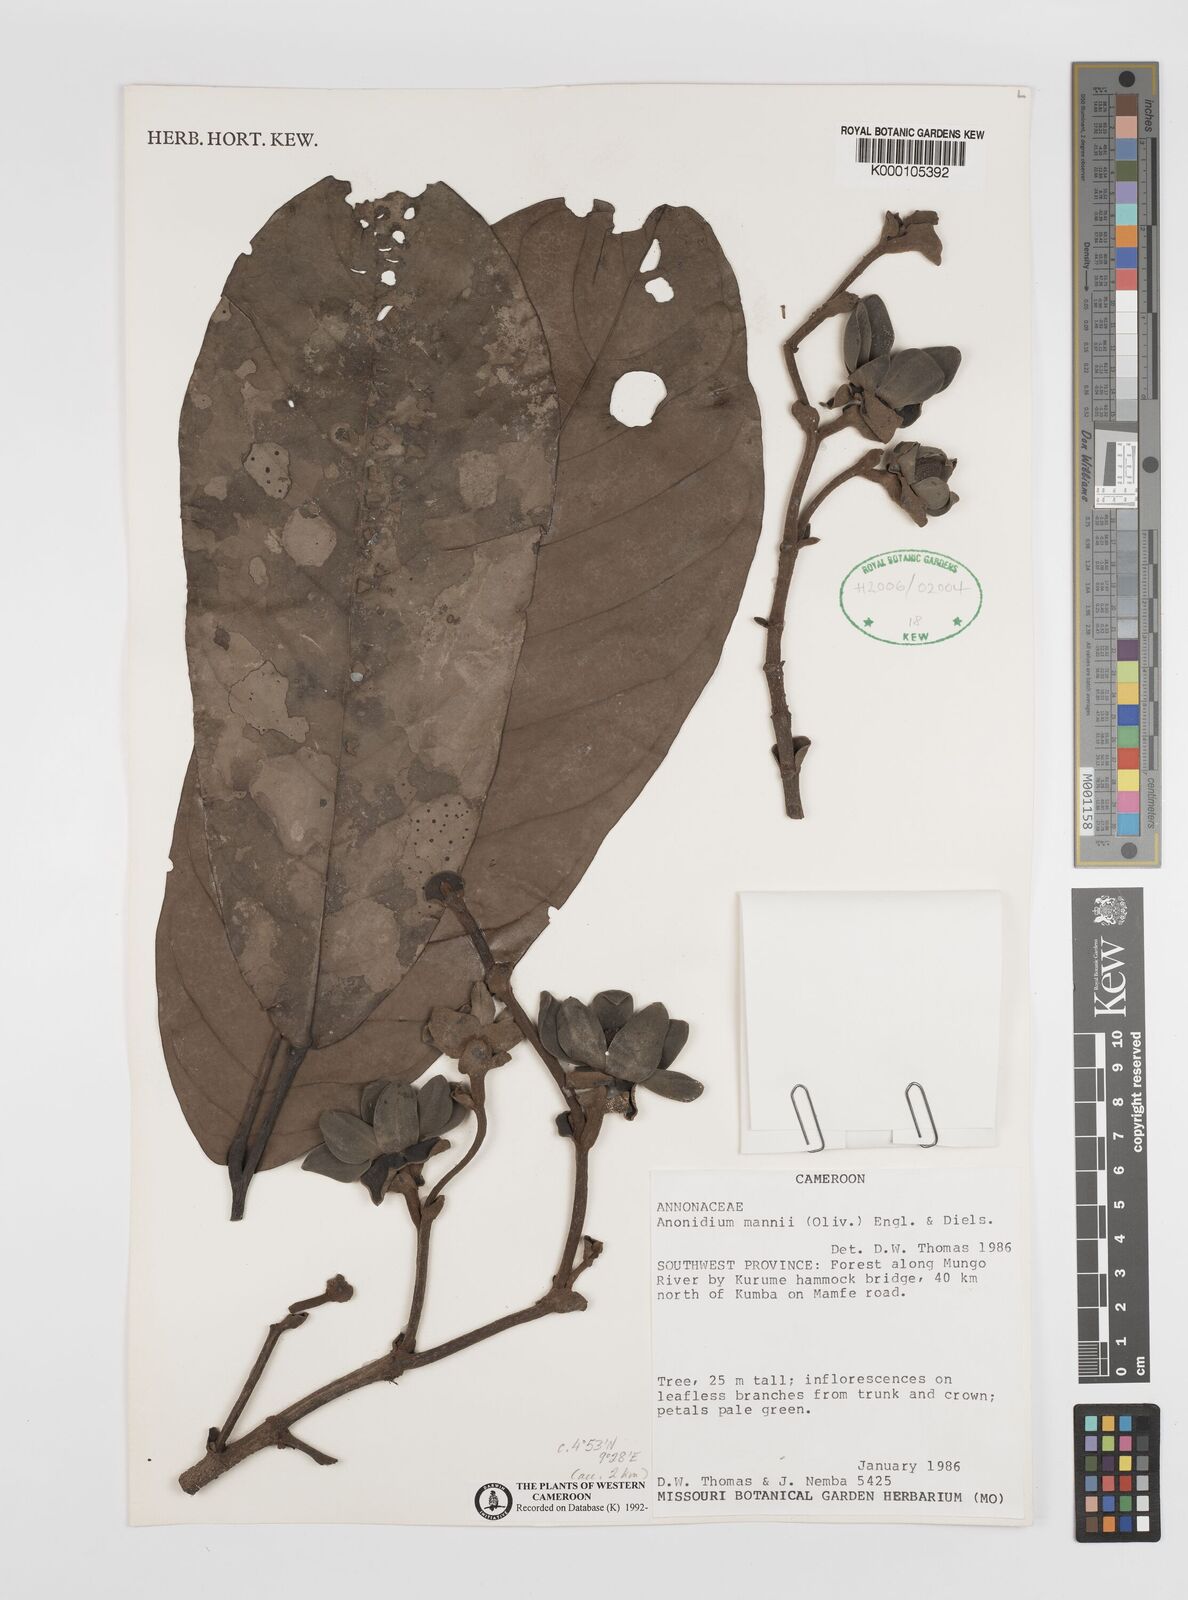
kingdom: Plantae
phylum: Tracheophyta
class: Magnoliopsida
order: Magnoliales
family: Annonaceae
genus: Anonidium
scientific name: Anonidium mannii
